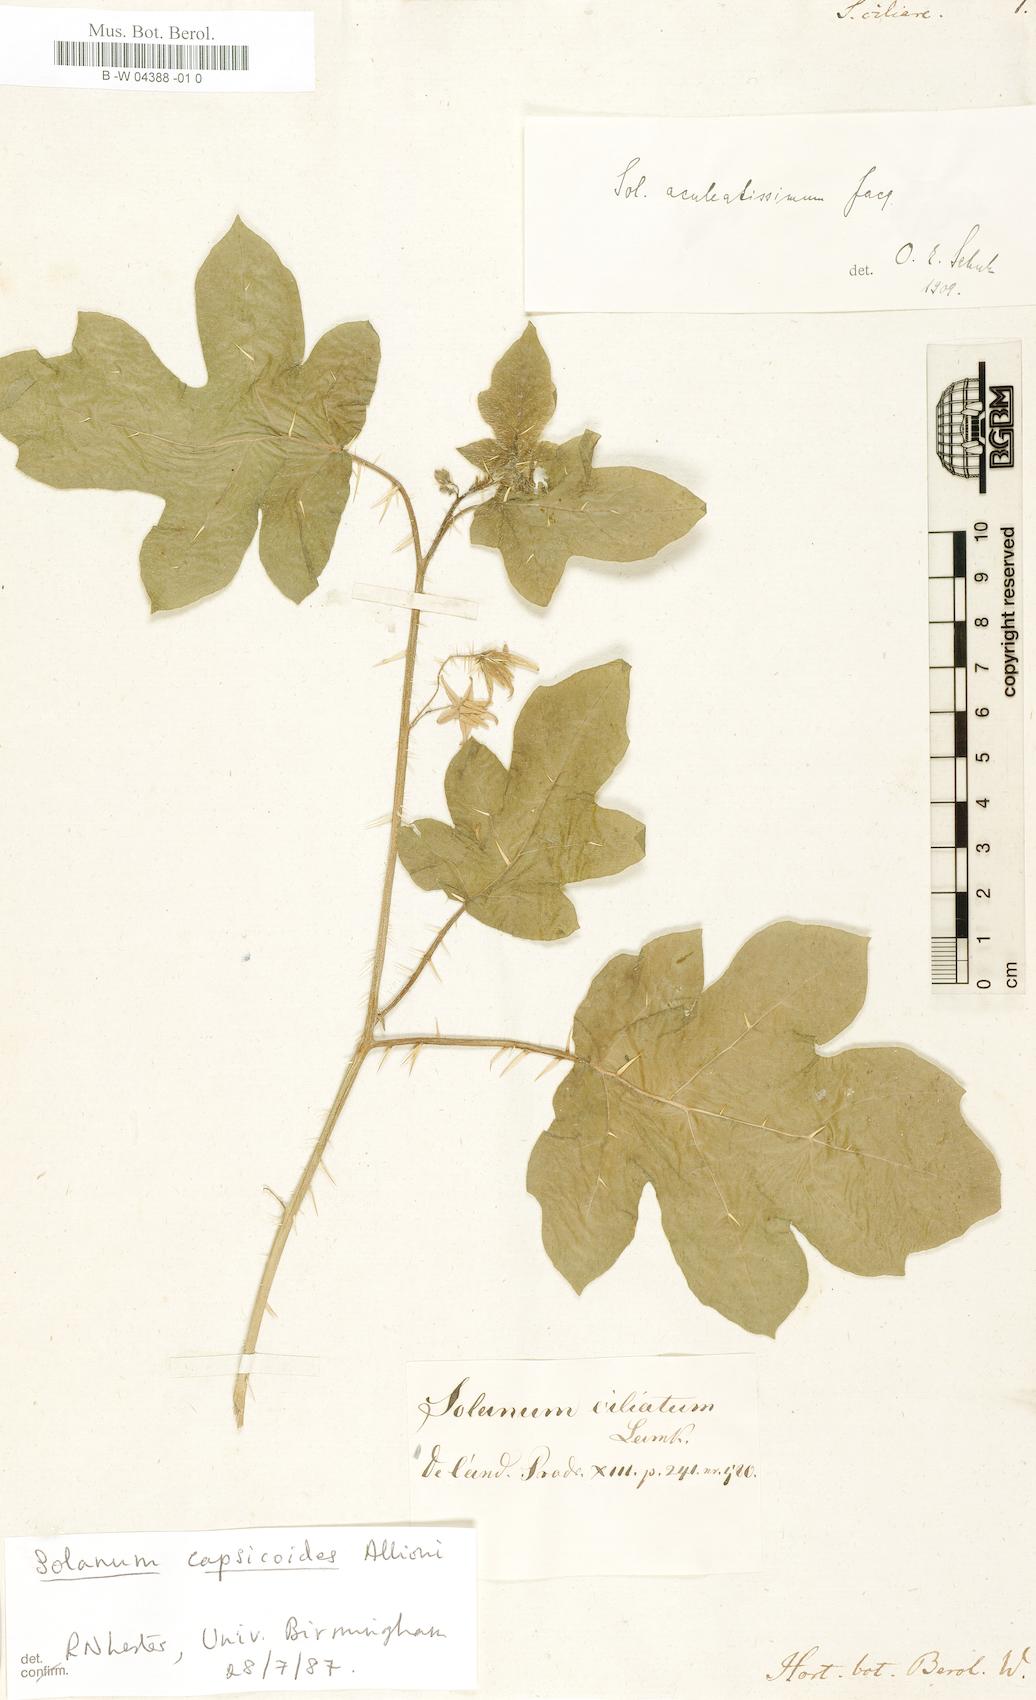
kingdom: Plantae
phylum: Tracheophyta
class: Magnoliopsida
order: Solanales
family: Solanaceae
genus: Solanum
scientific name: Solanum capsicoides
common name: Cockroach berry
